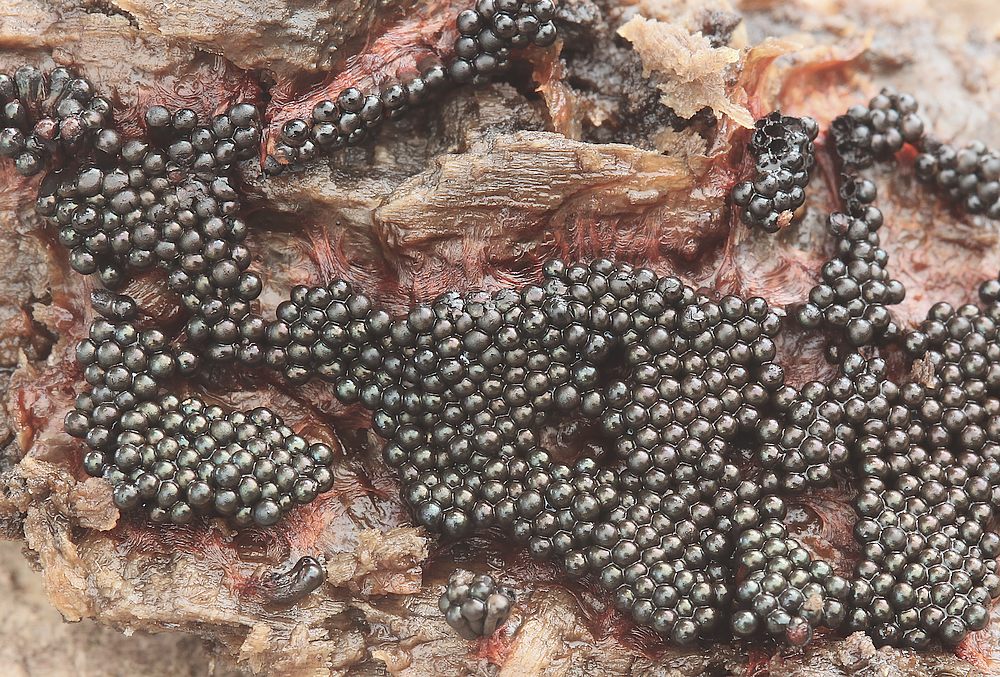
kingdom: Protozoa
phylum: Mycetozoa
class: Myxomycetes
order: Trichiales
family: Trichiaceae
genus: Metatrichia
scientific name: Metatrichia vesparia
